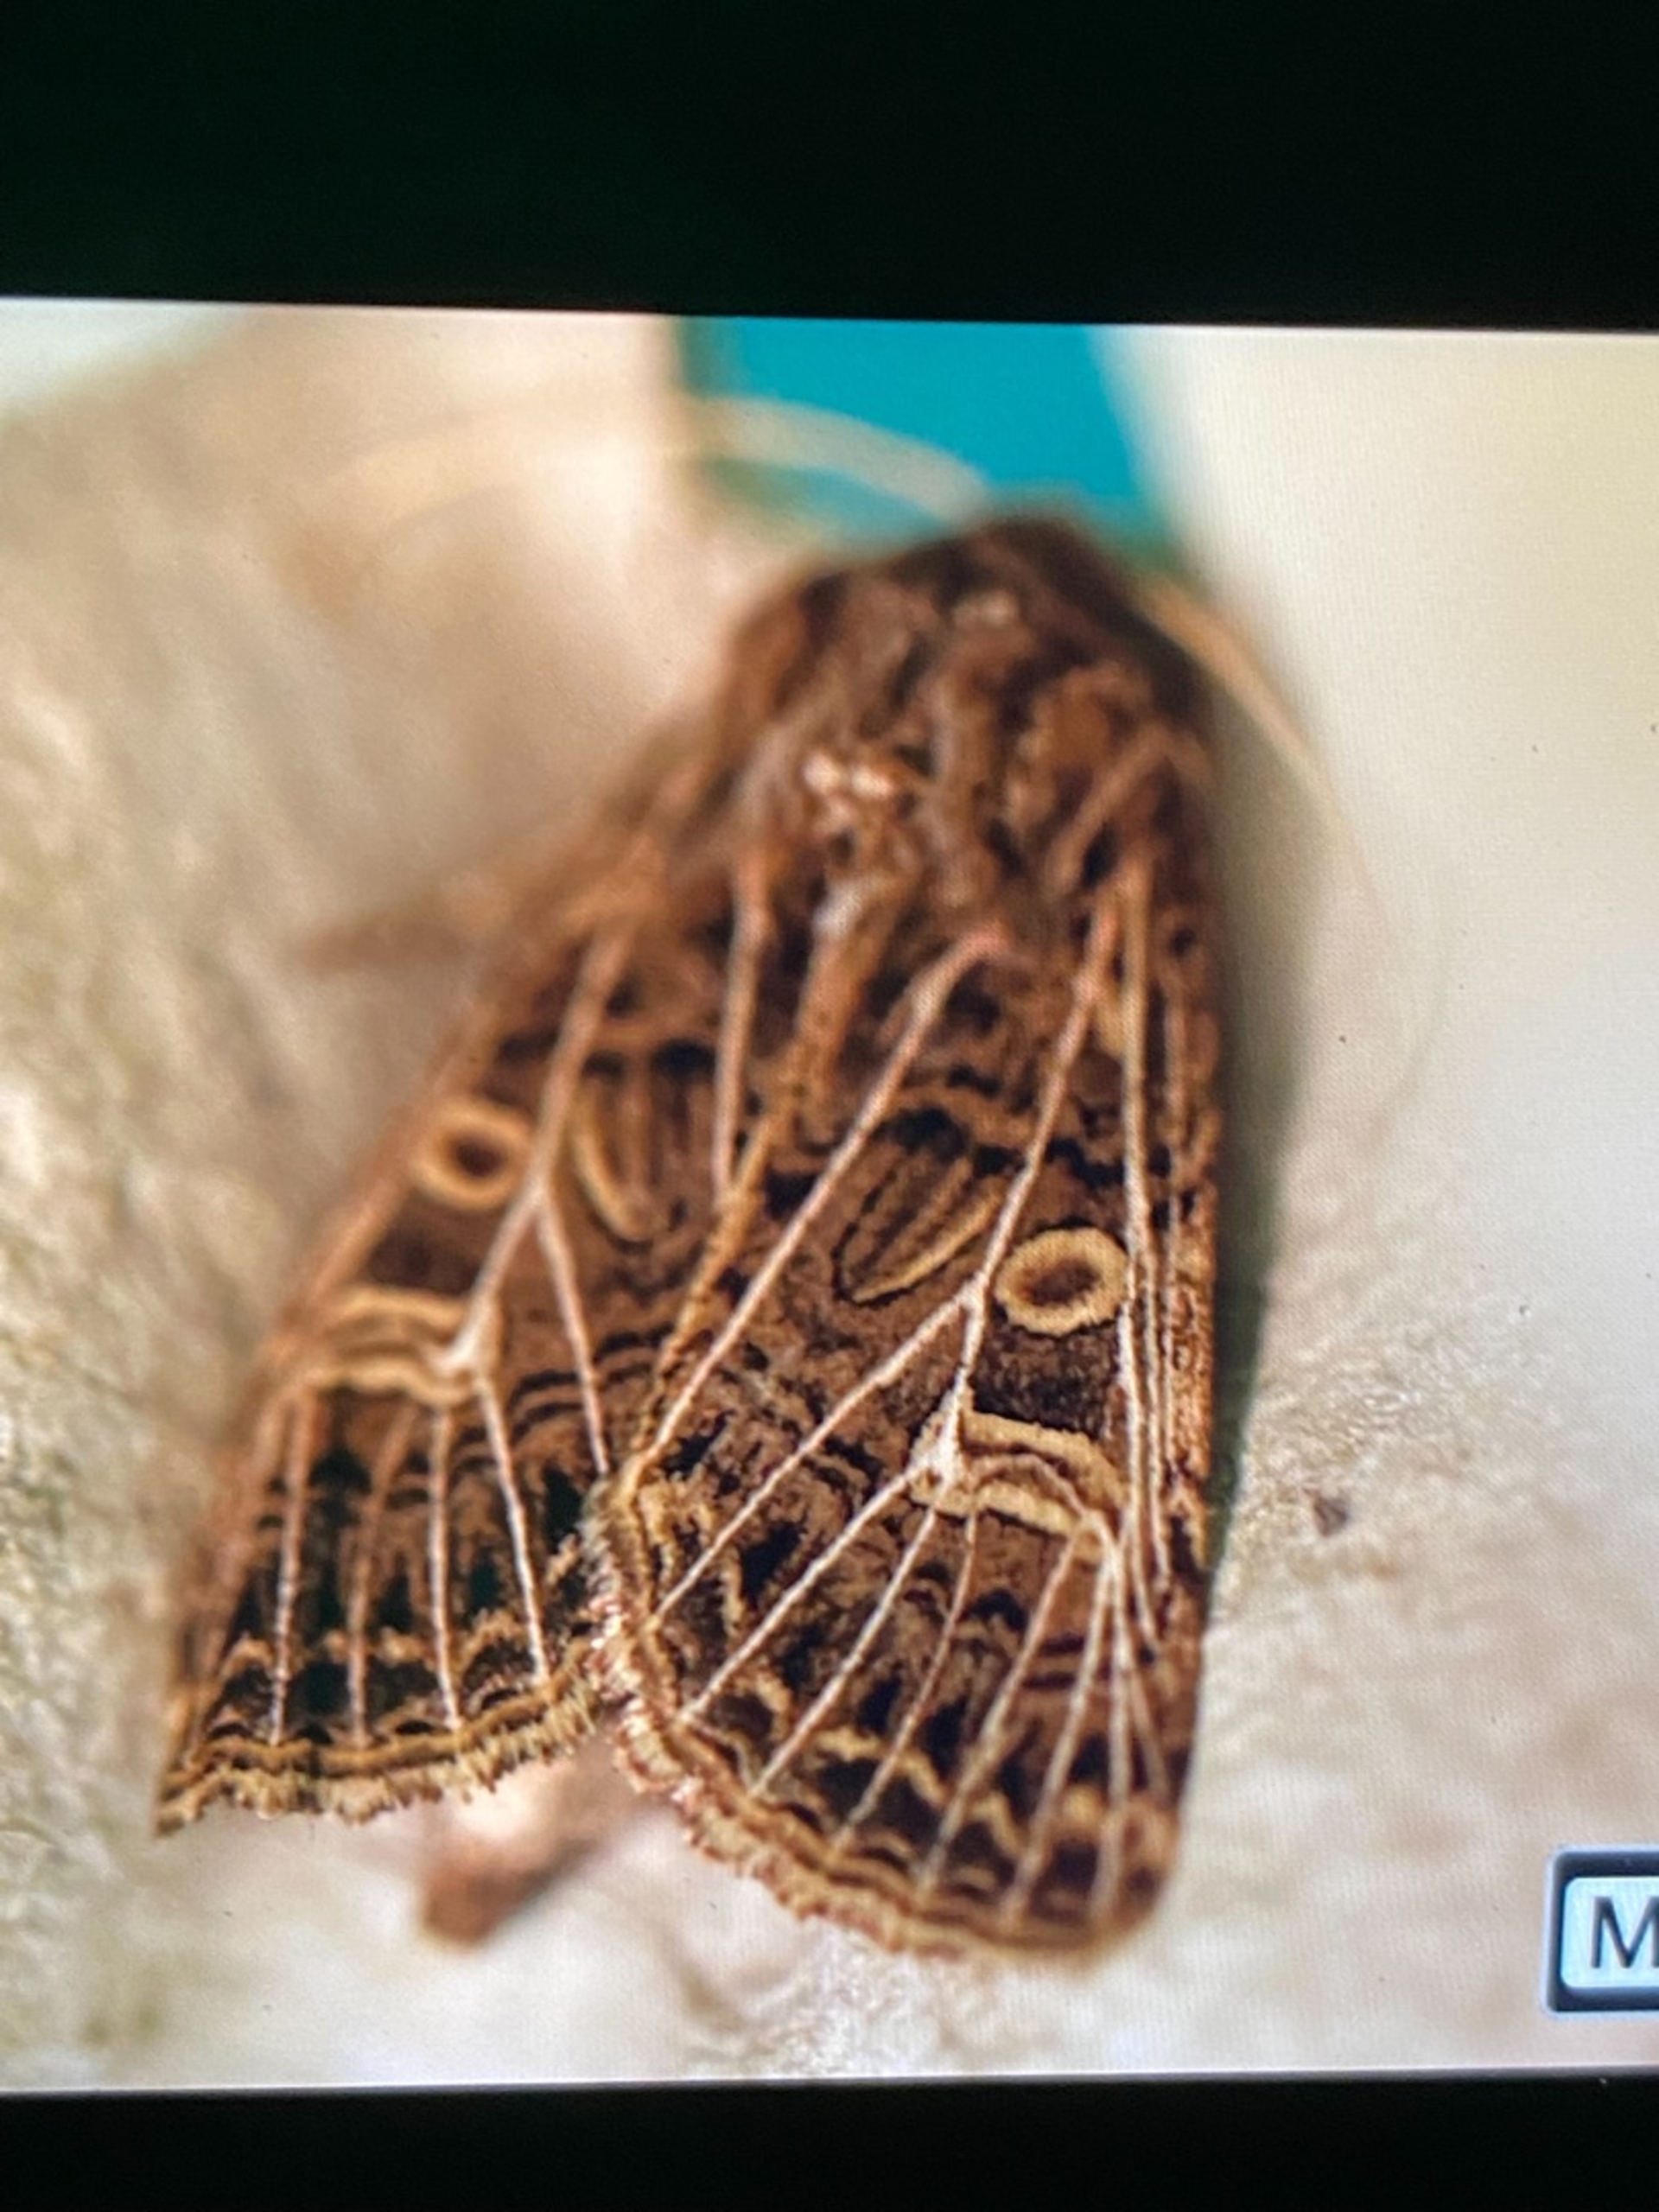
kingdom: Animalia
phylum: Arthropoda
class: Insecta
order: Lepidoptera
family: Noctuidae
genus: Tholera
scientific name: Tholera decimalis
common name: Hvidåret græsugle
